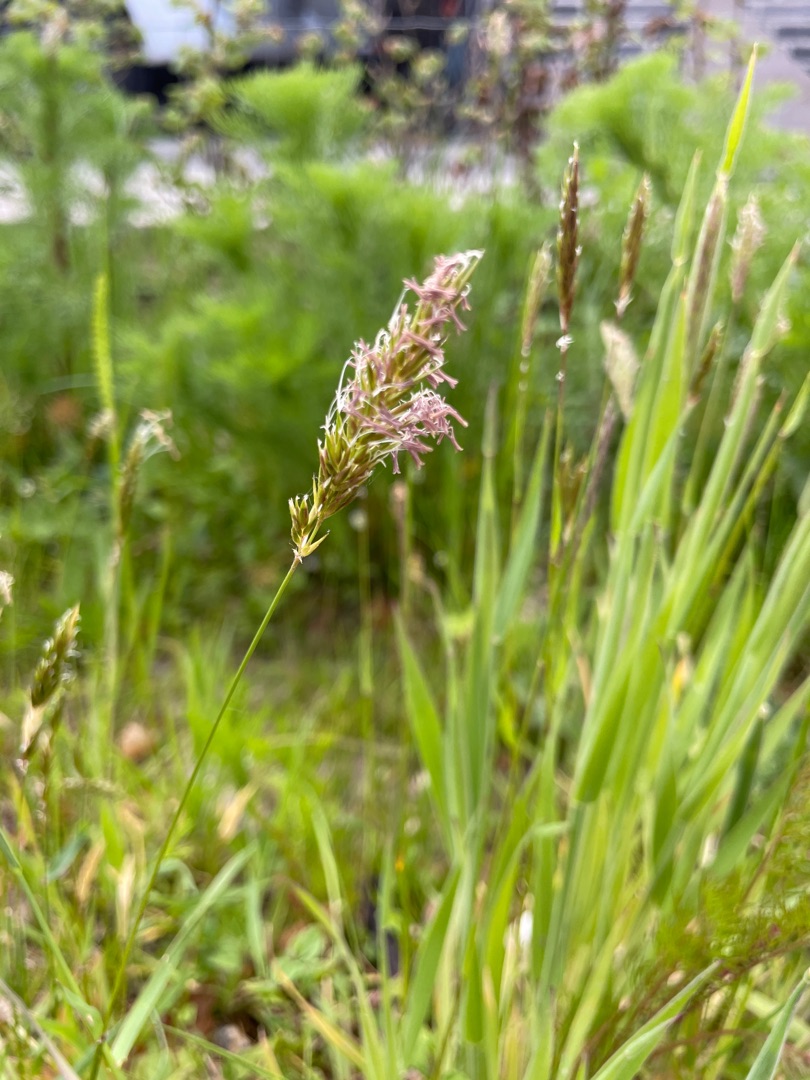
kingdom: Plantae
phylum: Tracheophyta
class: Liliopsida
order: Poales
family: Poaceae
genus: Anthoxanthum
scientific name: Anthoxanthum odoratum
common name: Vellugtende gulaks
